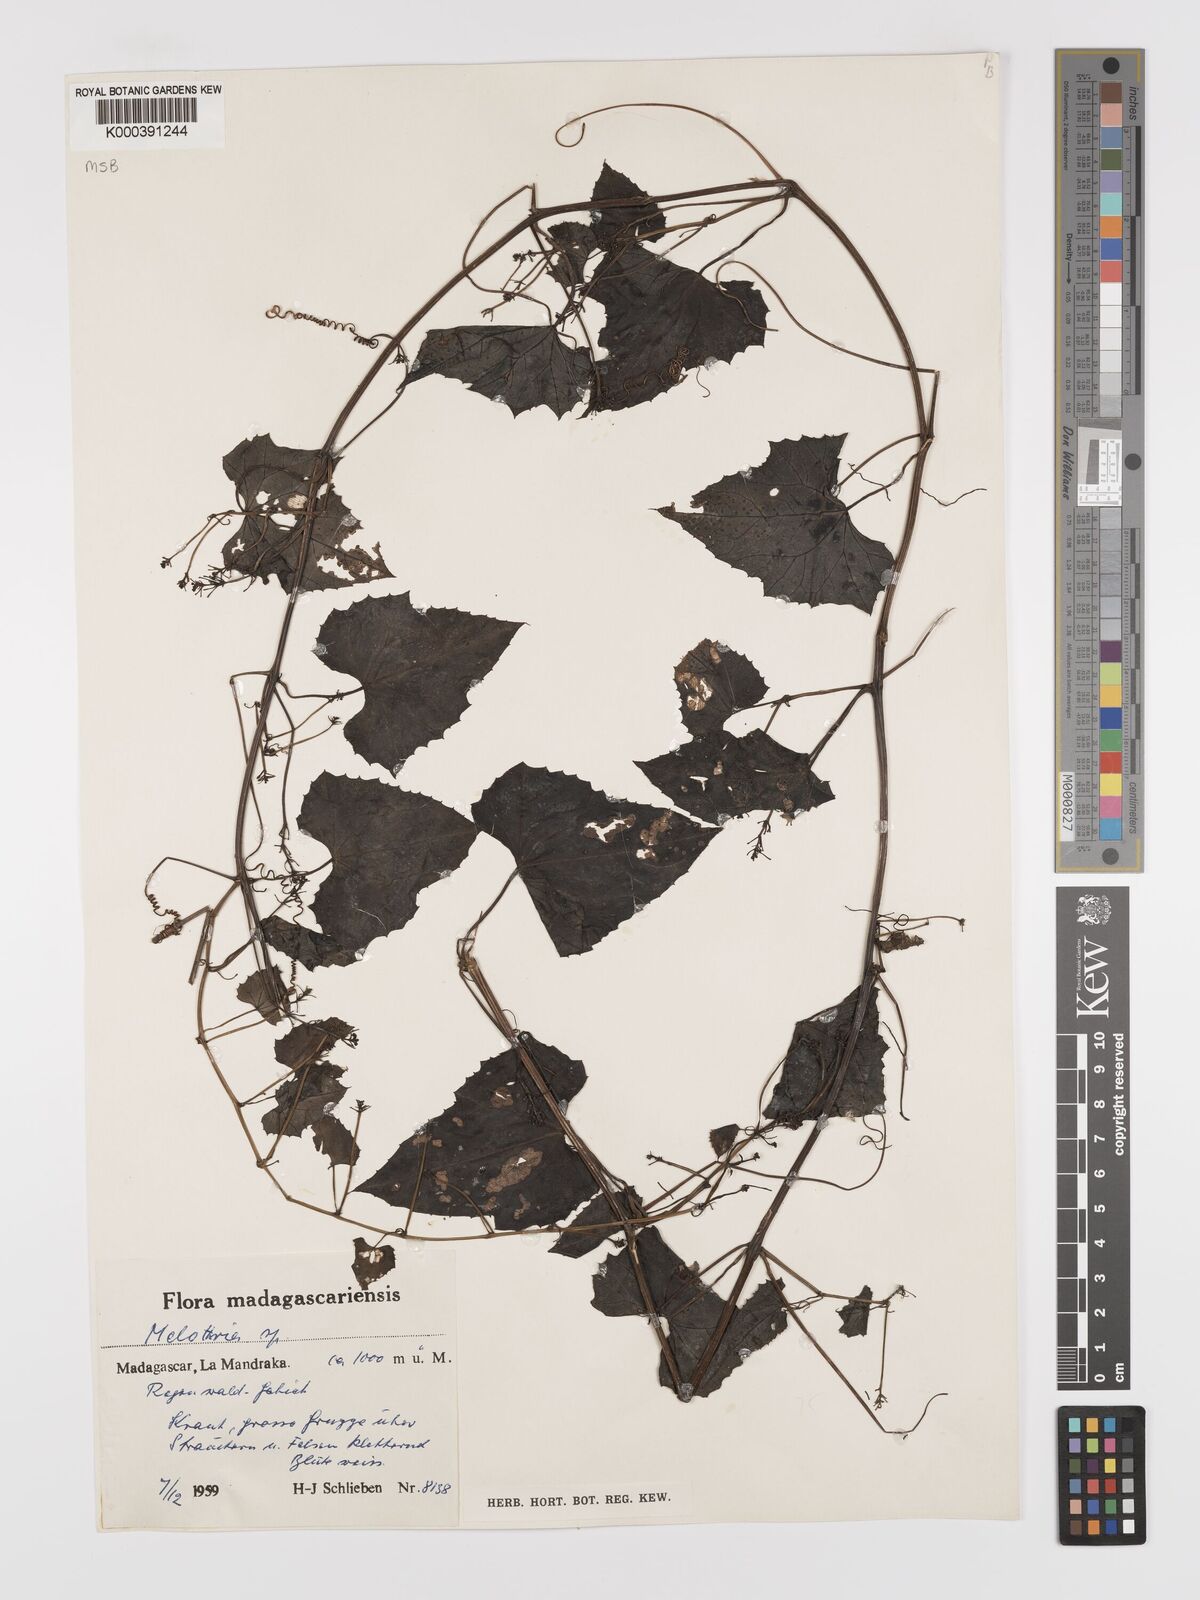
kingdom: Plantae
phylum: Tracheophyta
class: Magnoliopsida
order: Cucurbitales
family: Cucurbitaceae
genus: Zehneria
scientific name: Zehneria emirnensis
